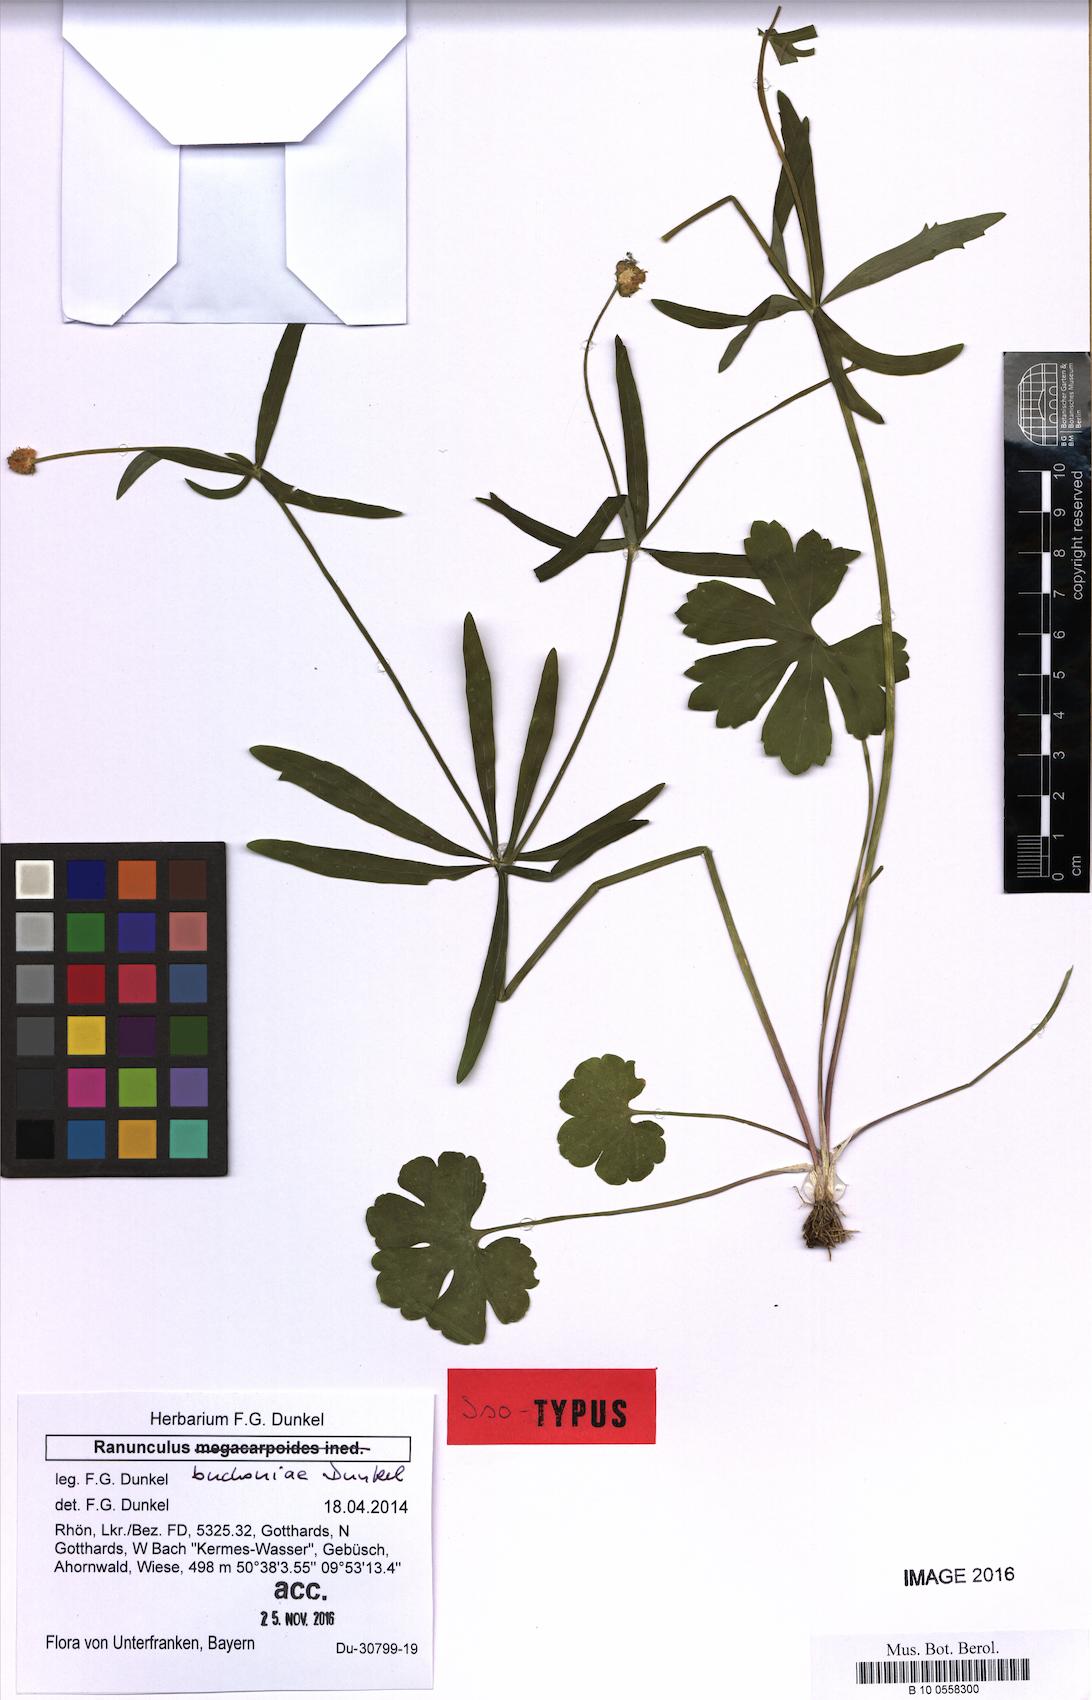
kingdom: Plantae
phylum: Tracheophyta
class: Magnoliopsida
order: Ranunculales
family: Ranunculaceae
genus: Ranunculus
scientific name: Ranunculus buchoniae
